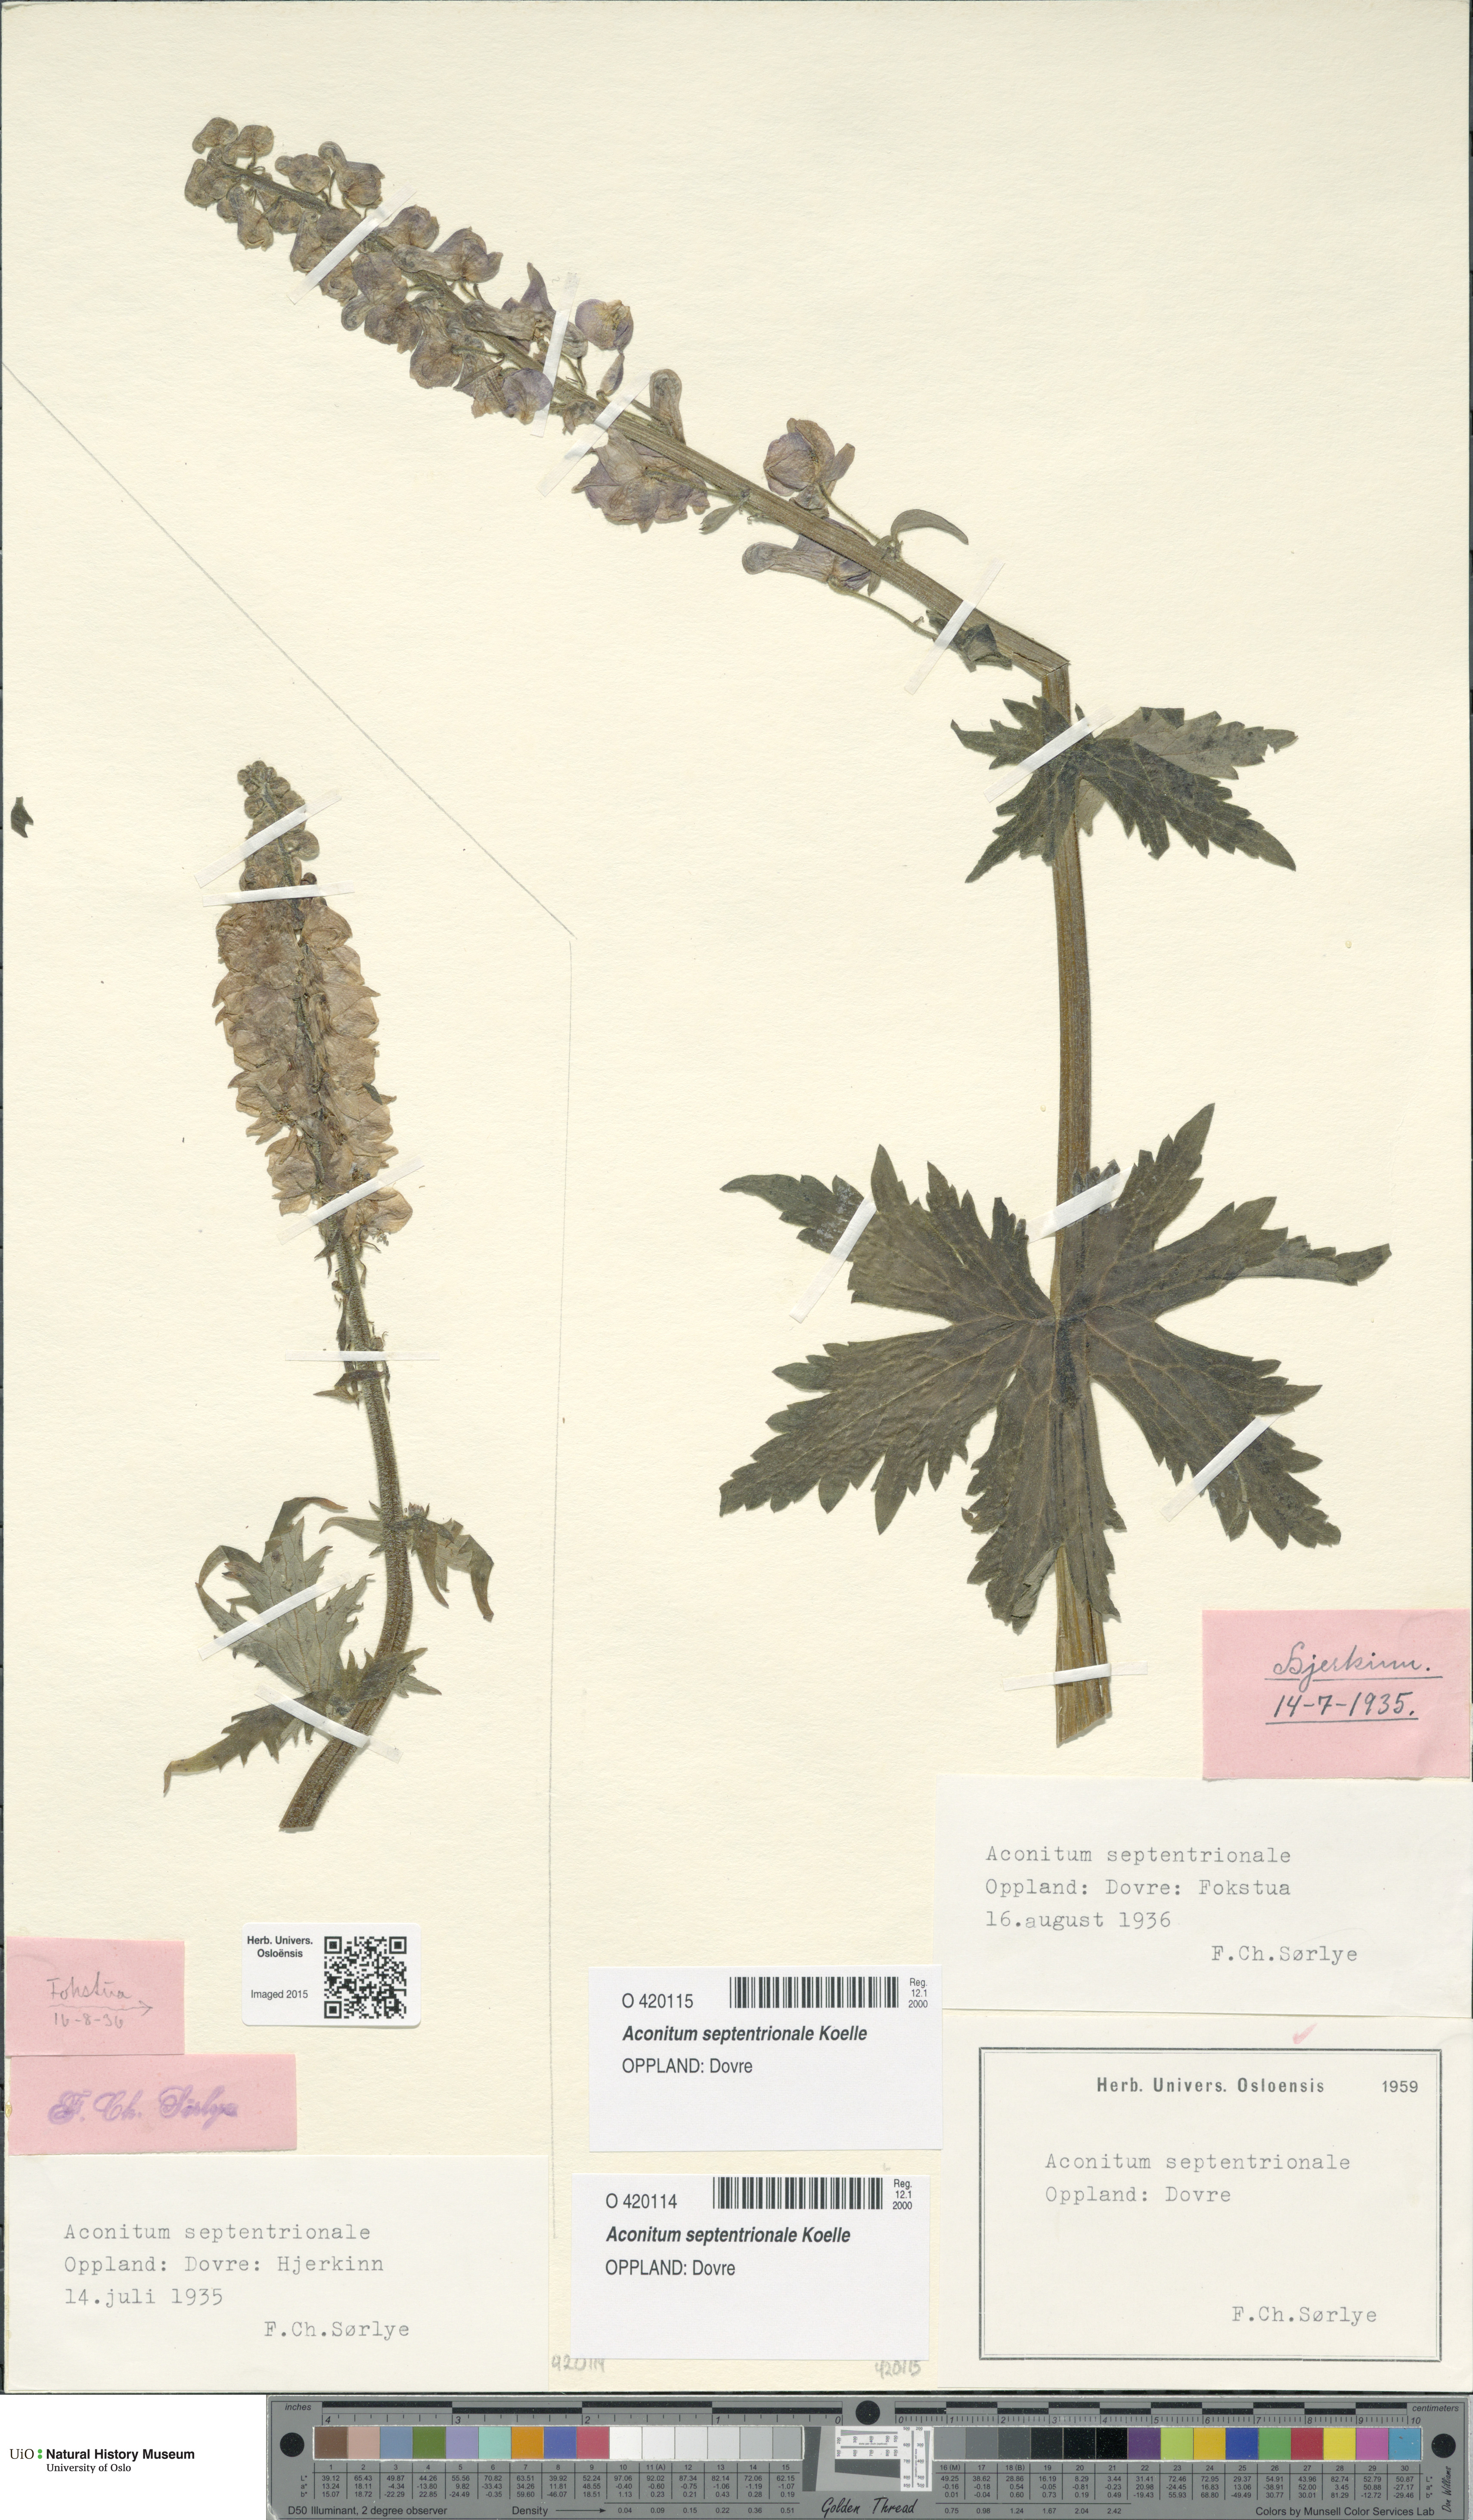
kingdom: Plantae
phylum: Tracheophyta
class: Magnoliopsida
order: Ranunculales
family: Ranunculaceae
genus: Aconitum
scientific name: Aconitum septentrionale
